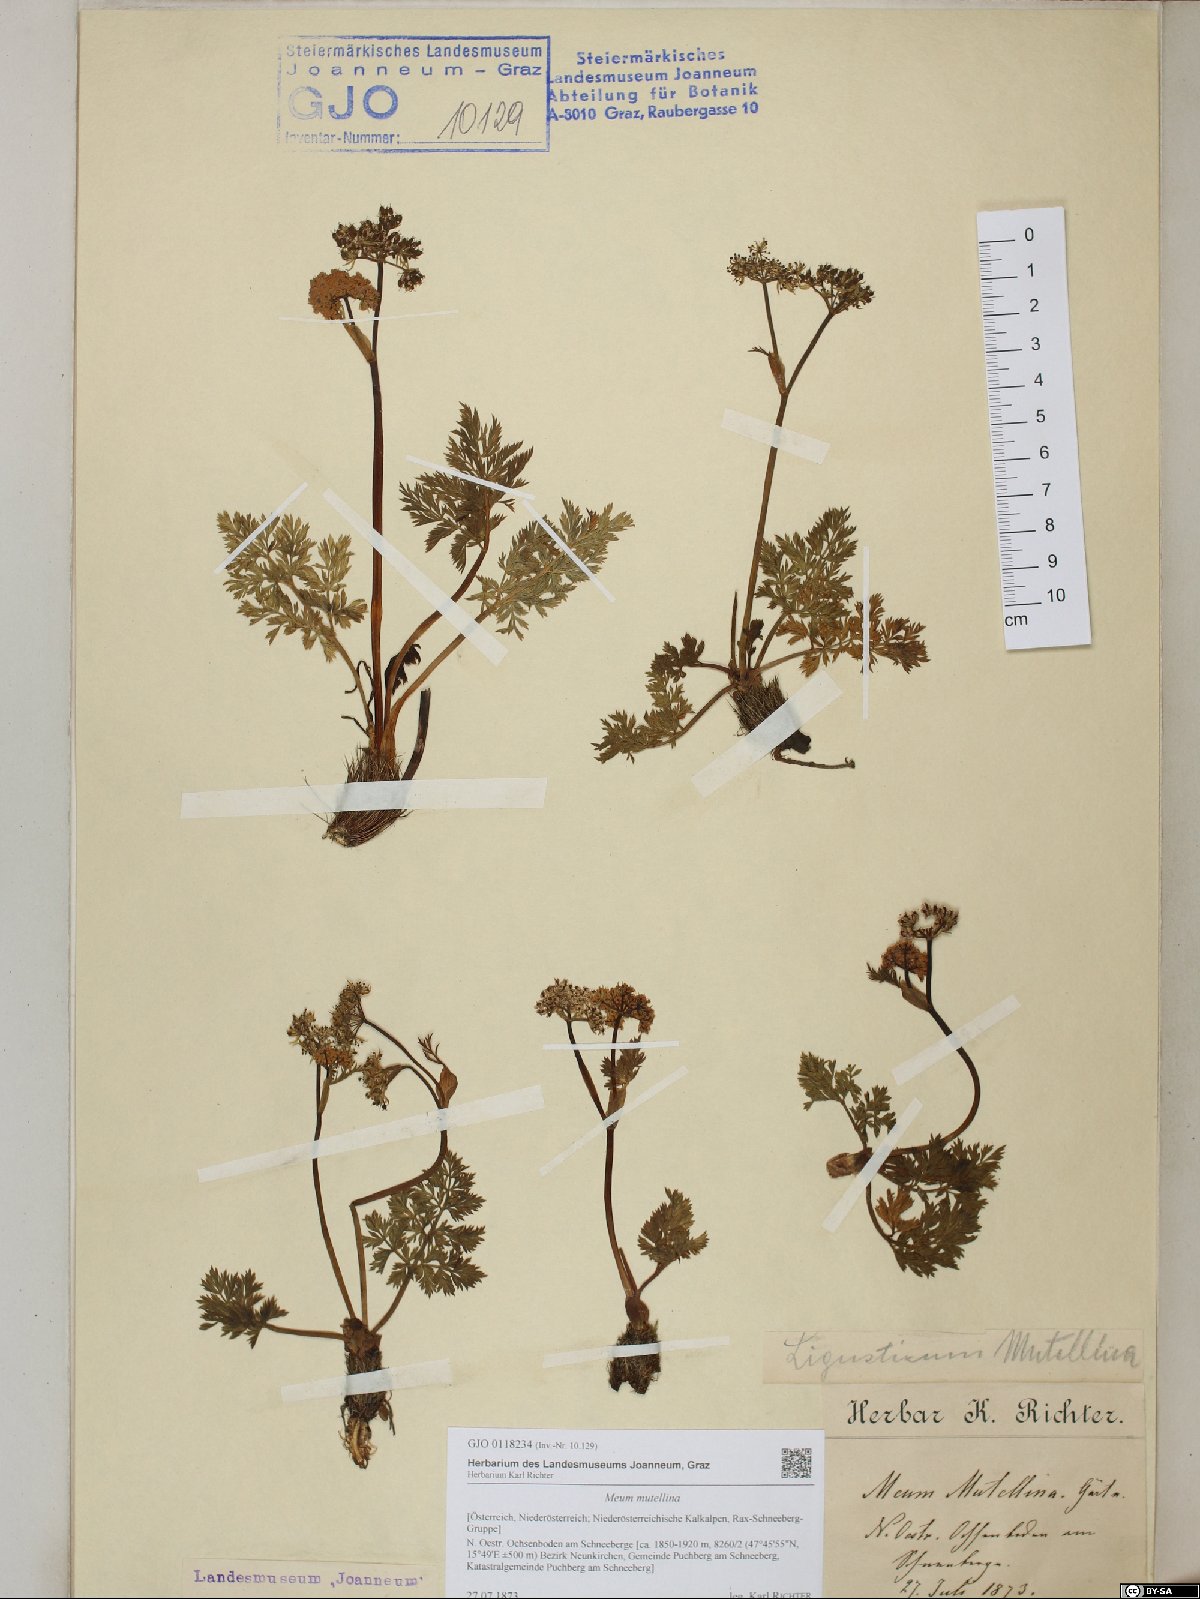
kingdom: Plantae
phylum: Tracheophyta
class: Magnoliopsida
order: Apiales
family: Apiaceae
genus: Mutellina
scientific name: Mutellina adonidifolia
